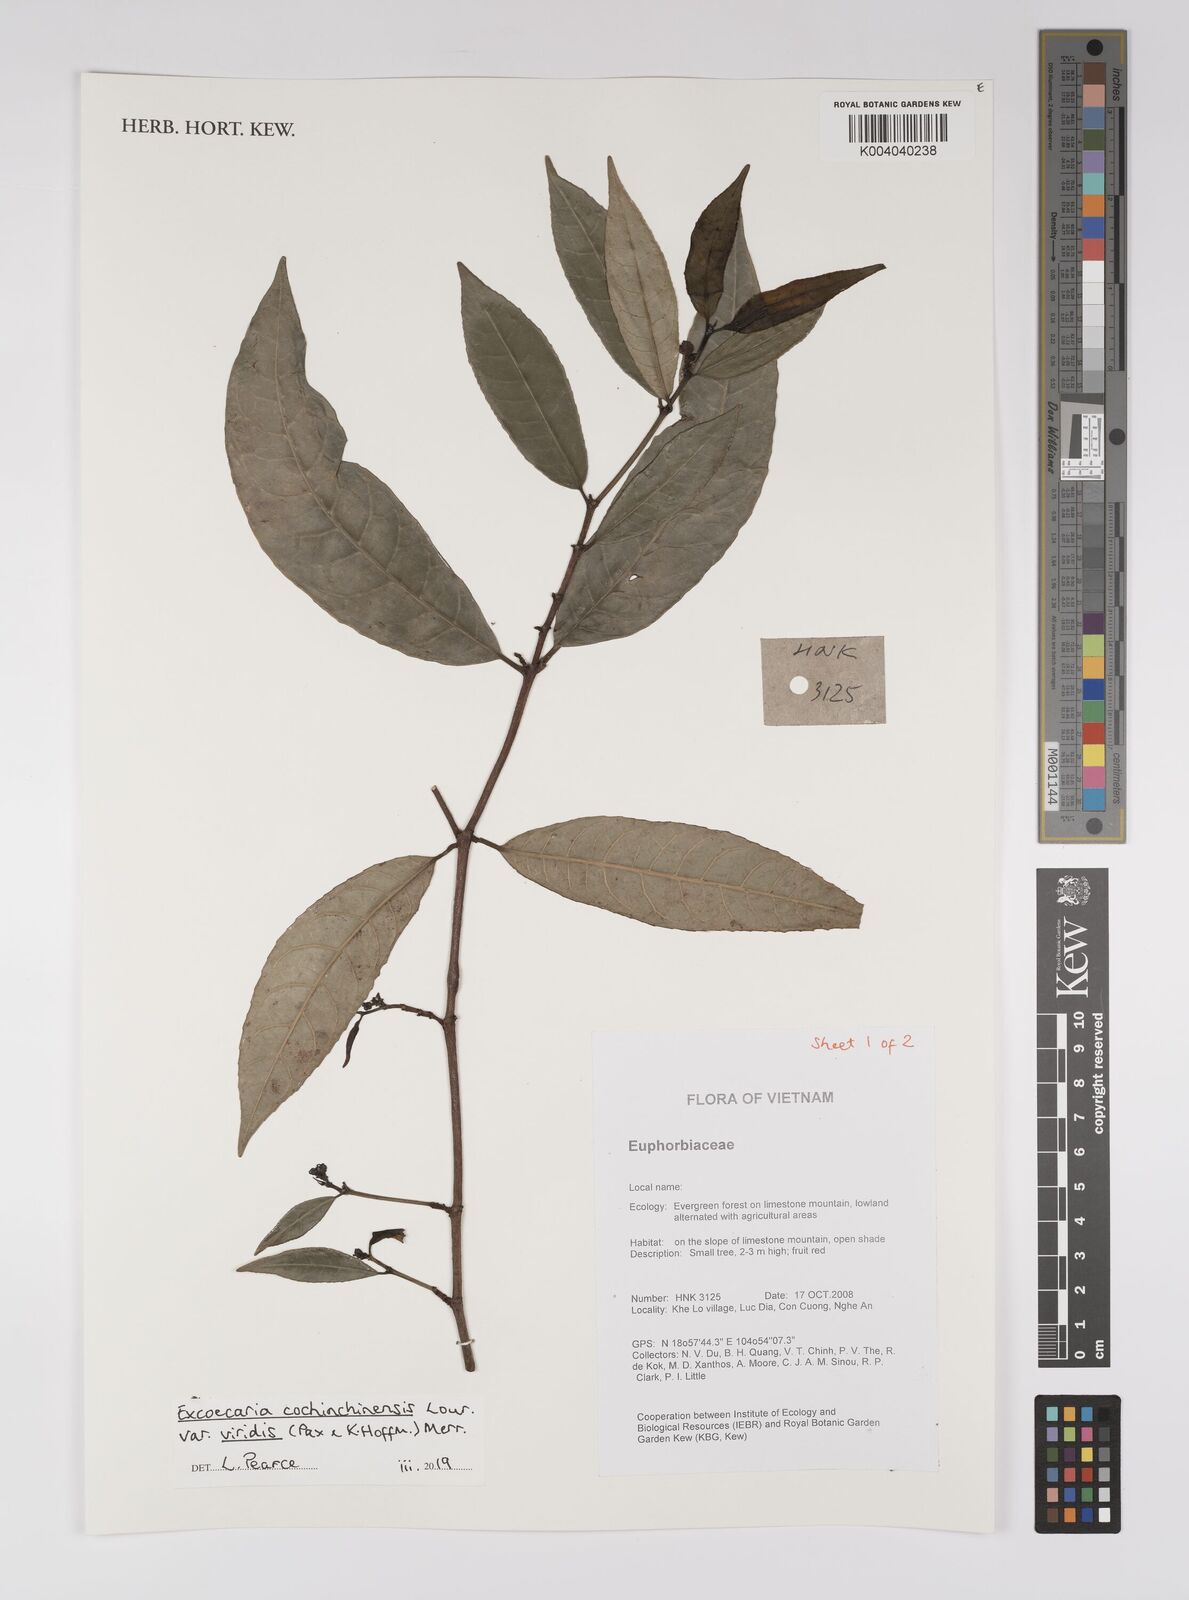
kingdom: Plantae
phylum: Tracheophyta
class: Magnoliopsida
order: Malpighiales
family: Euphorbiaceae
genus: Excoecaria
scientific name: Excoecaria cochinchinensis
